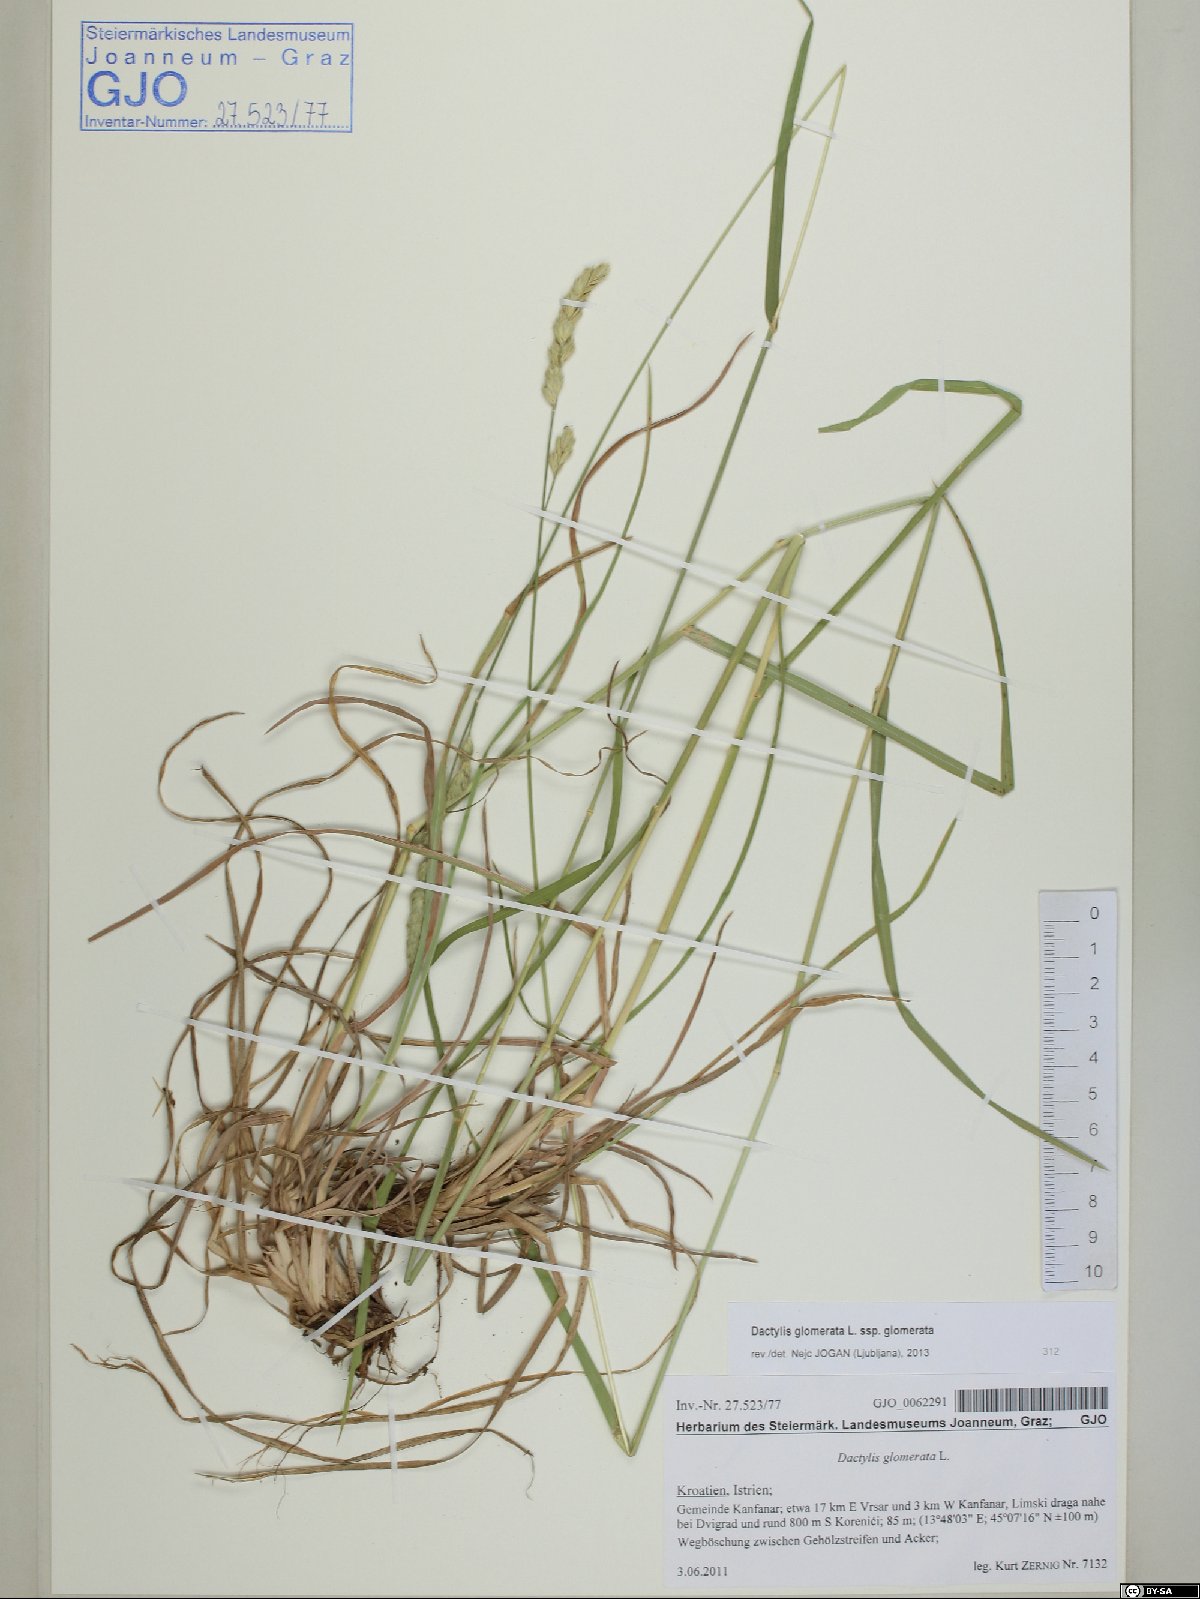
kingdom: Plantae
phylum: Tracheophyta
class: Liliopsida
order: Poales
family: Poaceae
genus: Dactylis
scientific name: Dactylis glomerata
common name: Orchardgrass
